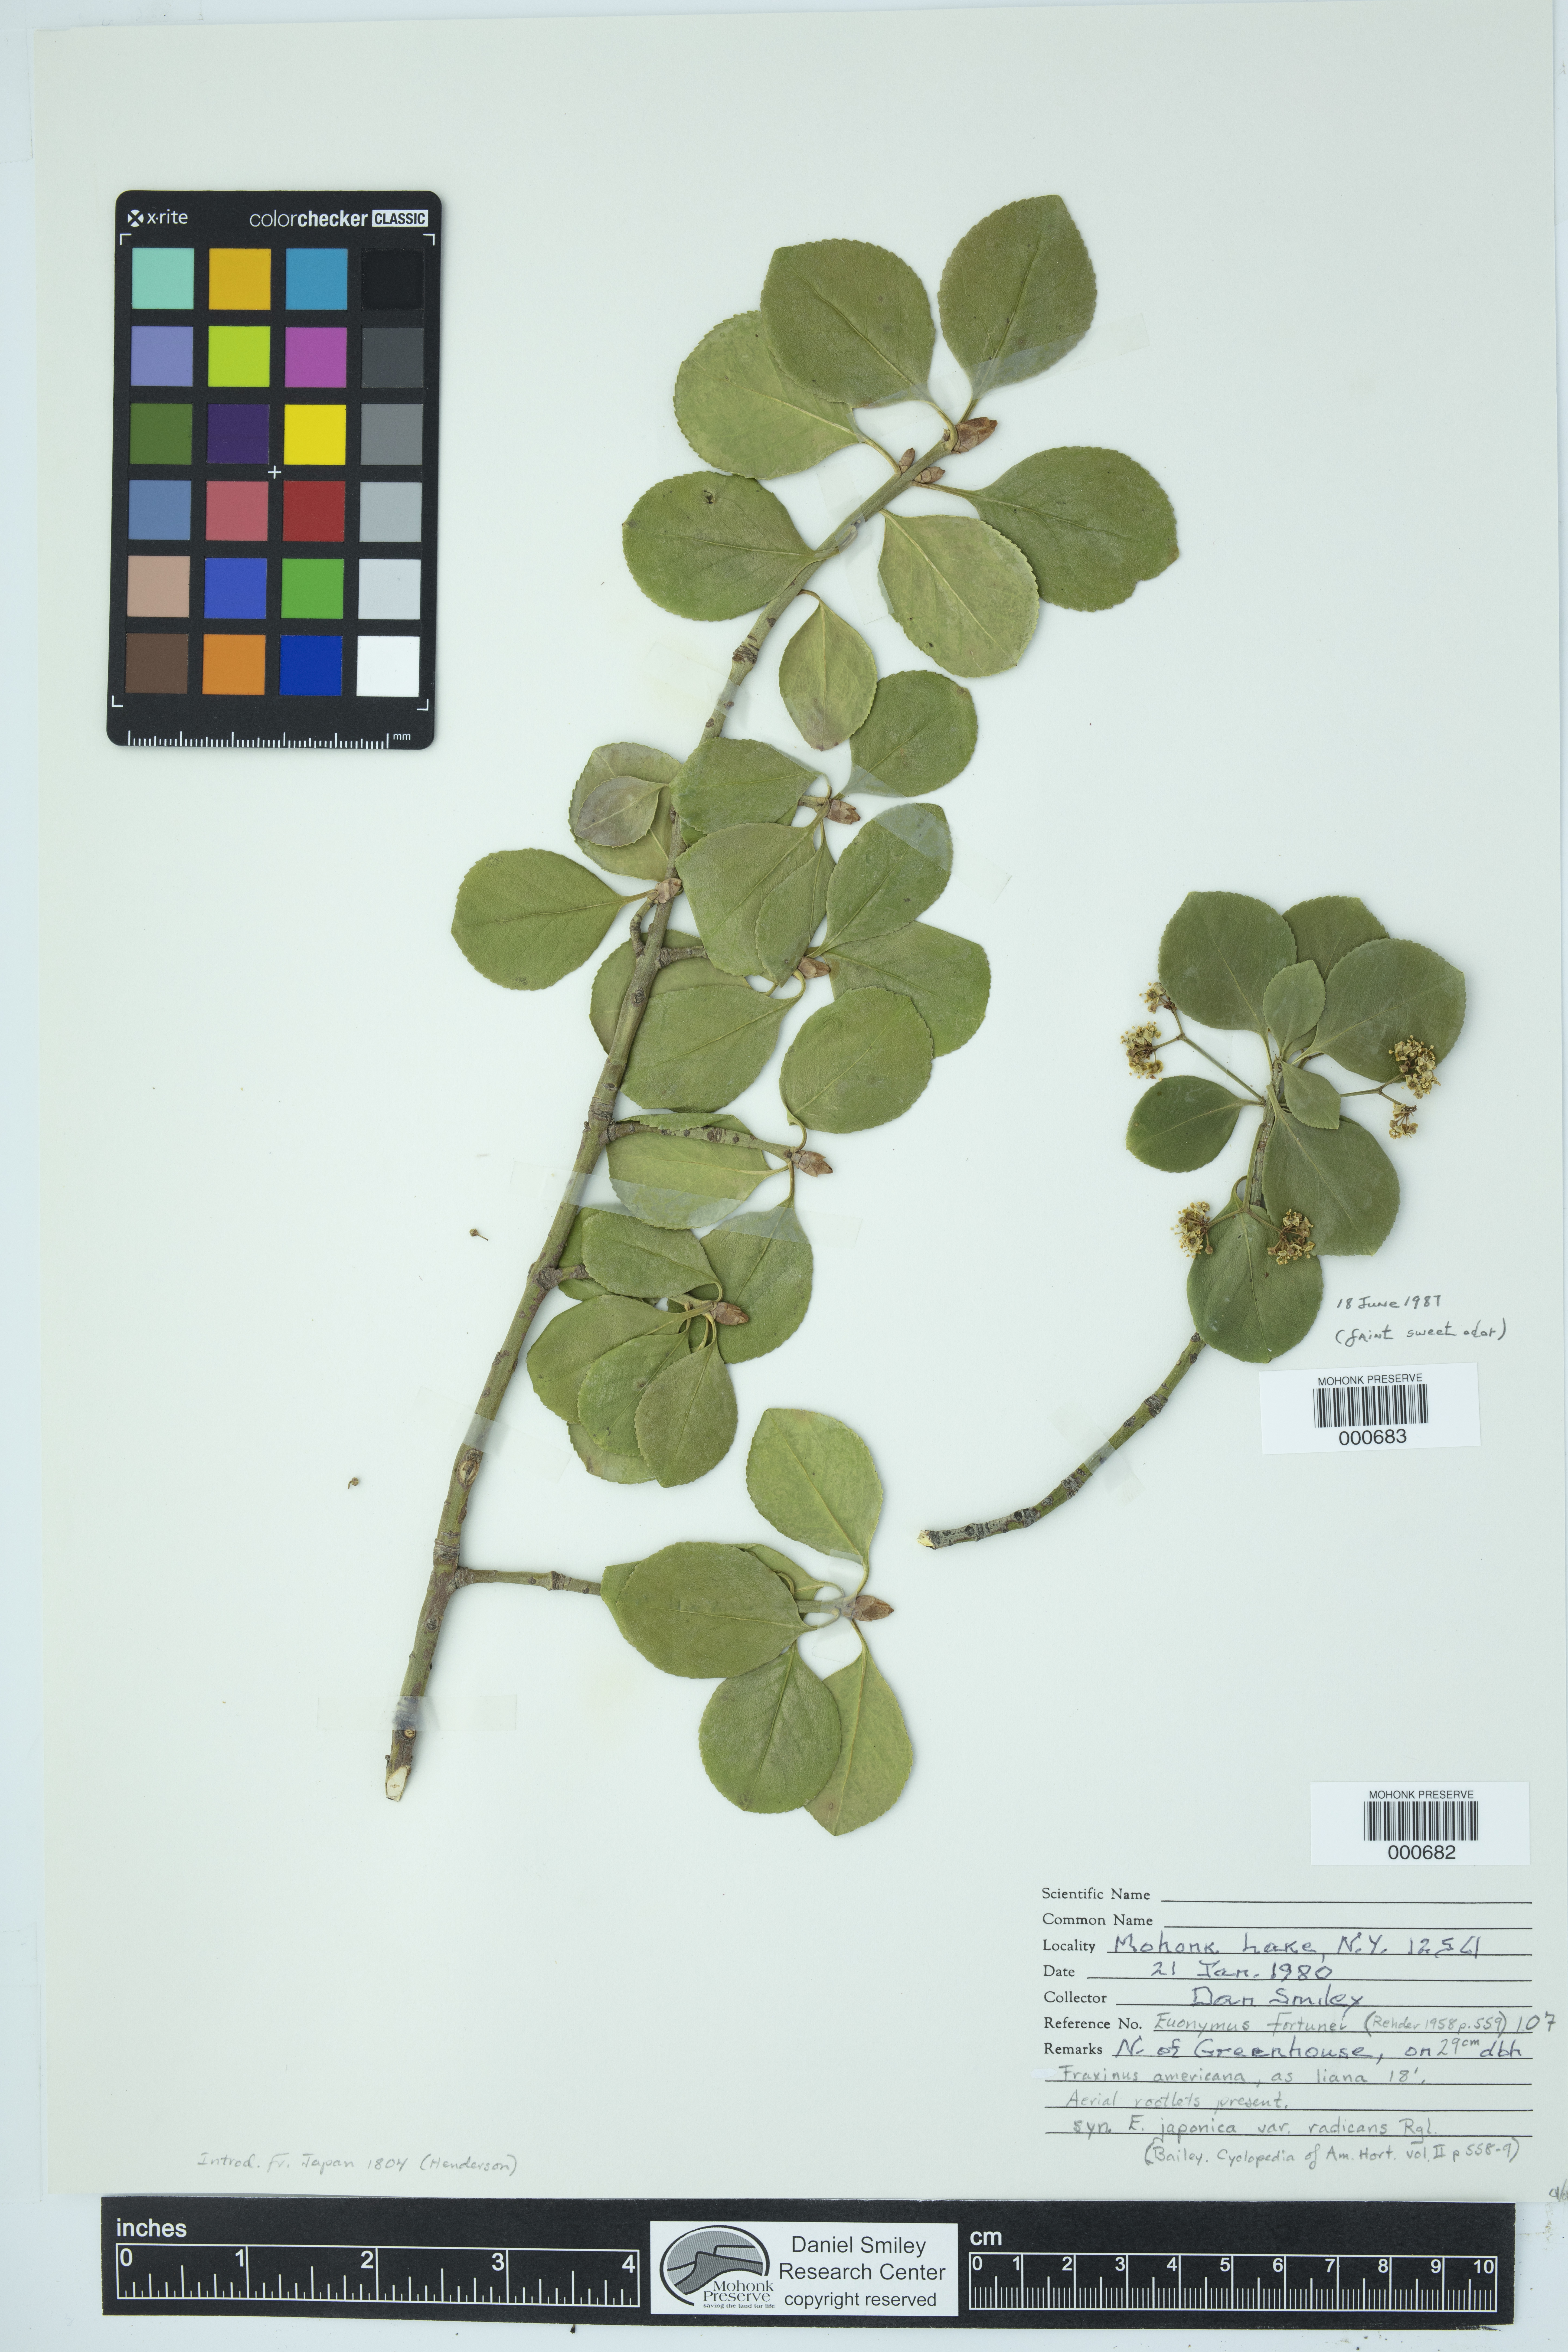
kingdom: Plantae
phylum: Tracheophyta
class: Magnoliopsida
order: Celastrales
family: Celastraceae
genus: Euonymus
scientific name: Euonymus fortunei
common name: Climbing euonymus
